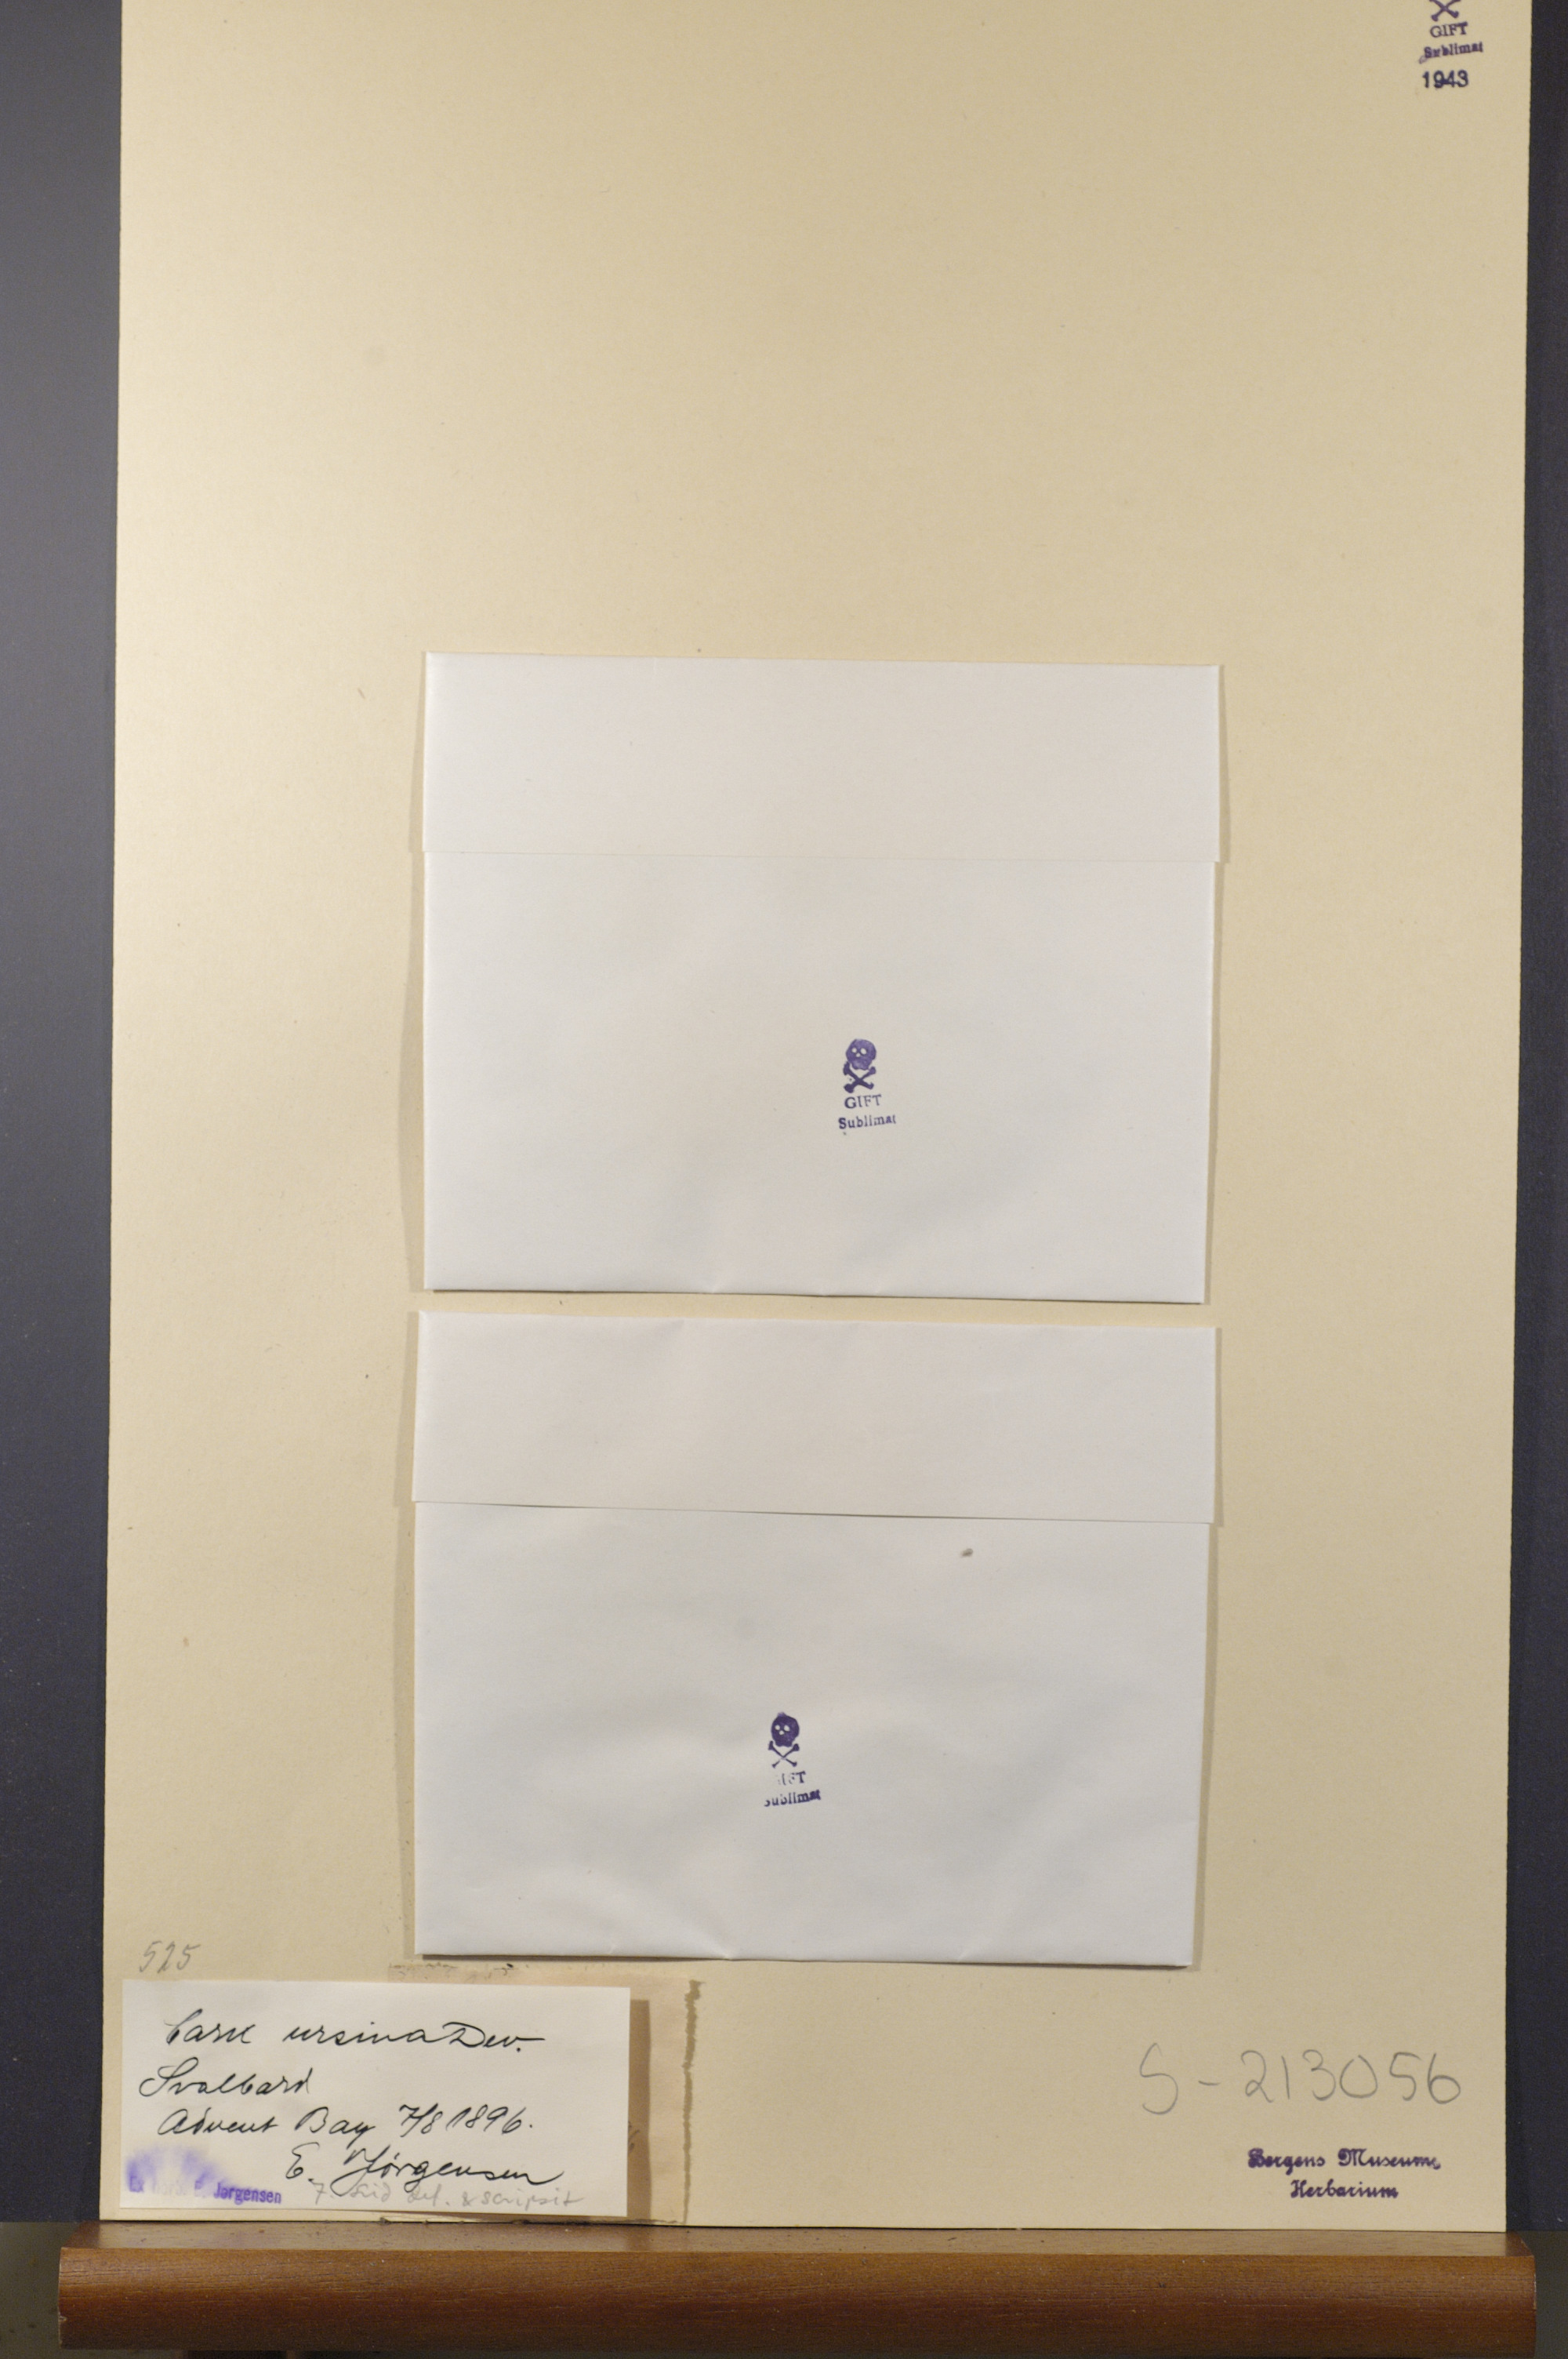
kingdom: Plantae
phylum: Tracheophyta
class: Liliopsida
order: Poales
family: Cyperaceae
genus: Carex
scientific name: Carex ursina
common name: Bear sedge
